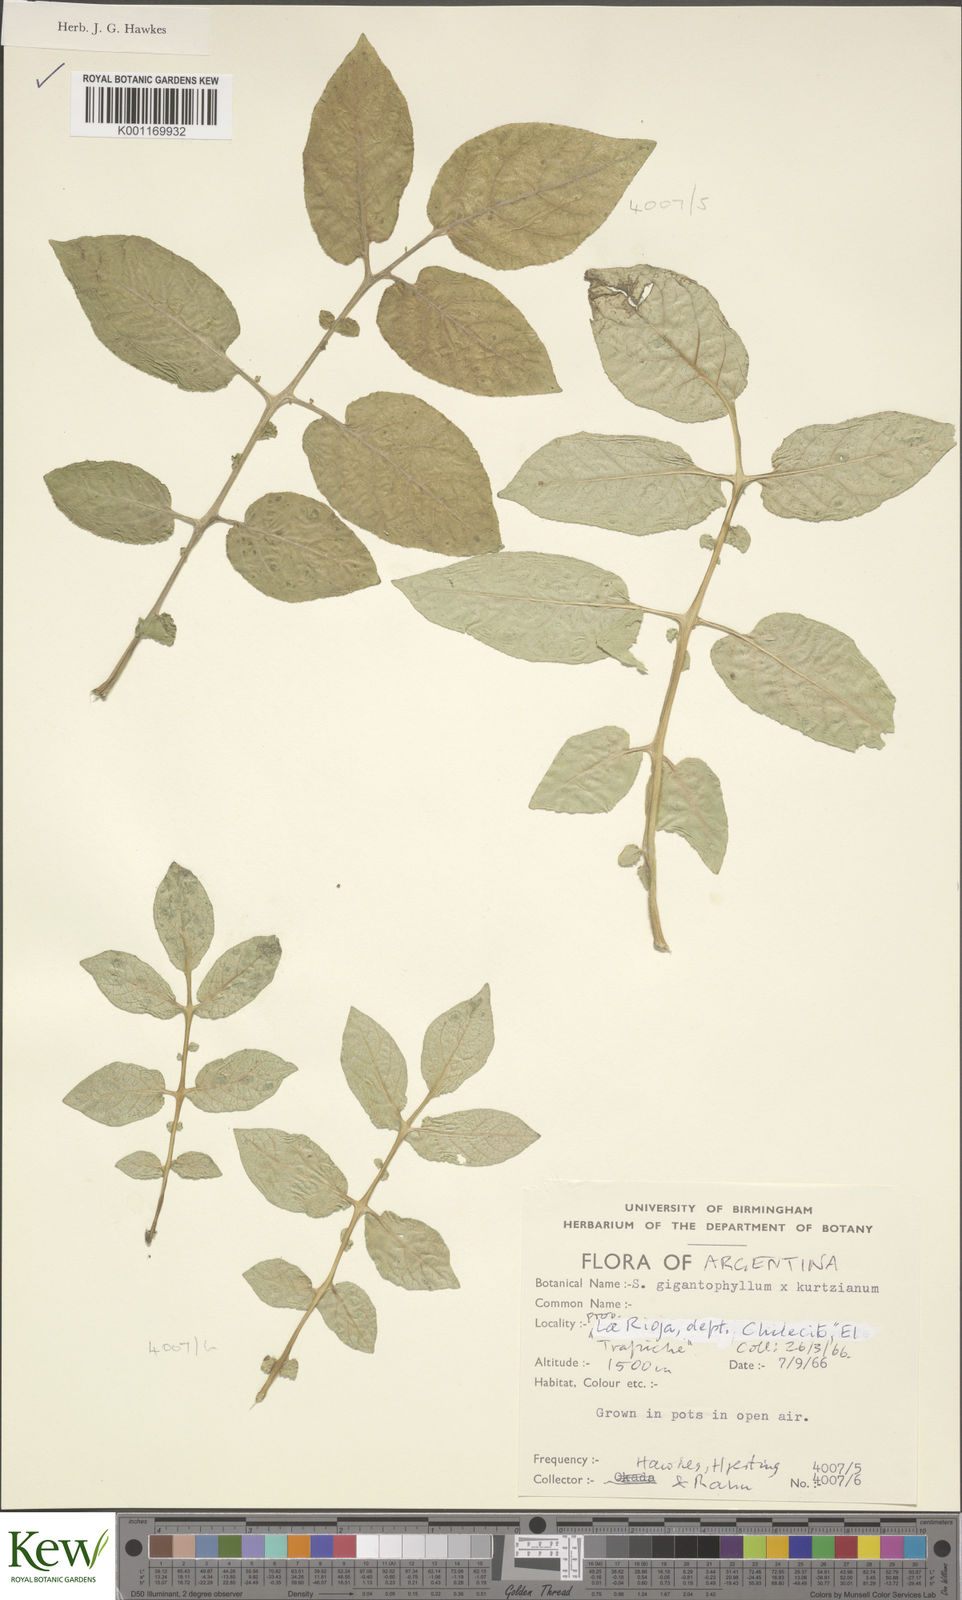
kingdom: Plantae
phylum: Tracheophyta
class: Magnoliopsida
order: Solanales
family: Solanaceae
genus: Solanum
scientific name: Solanum rechei
